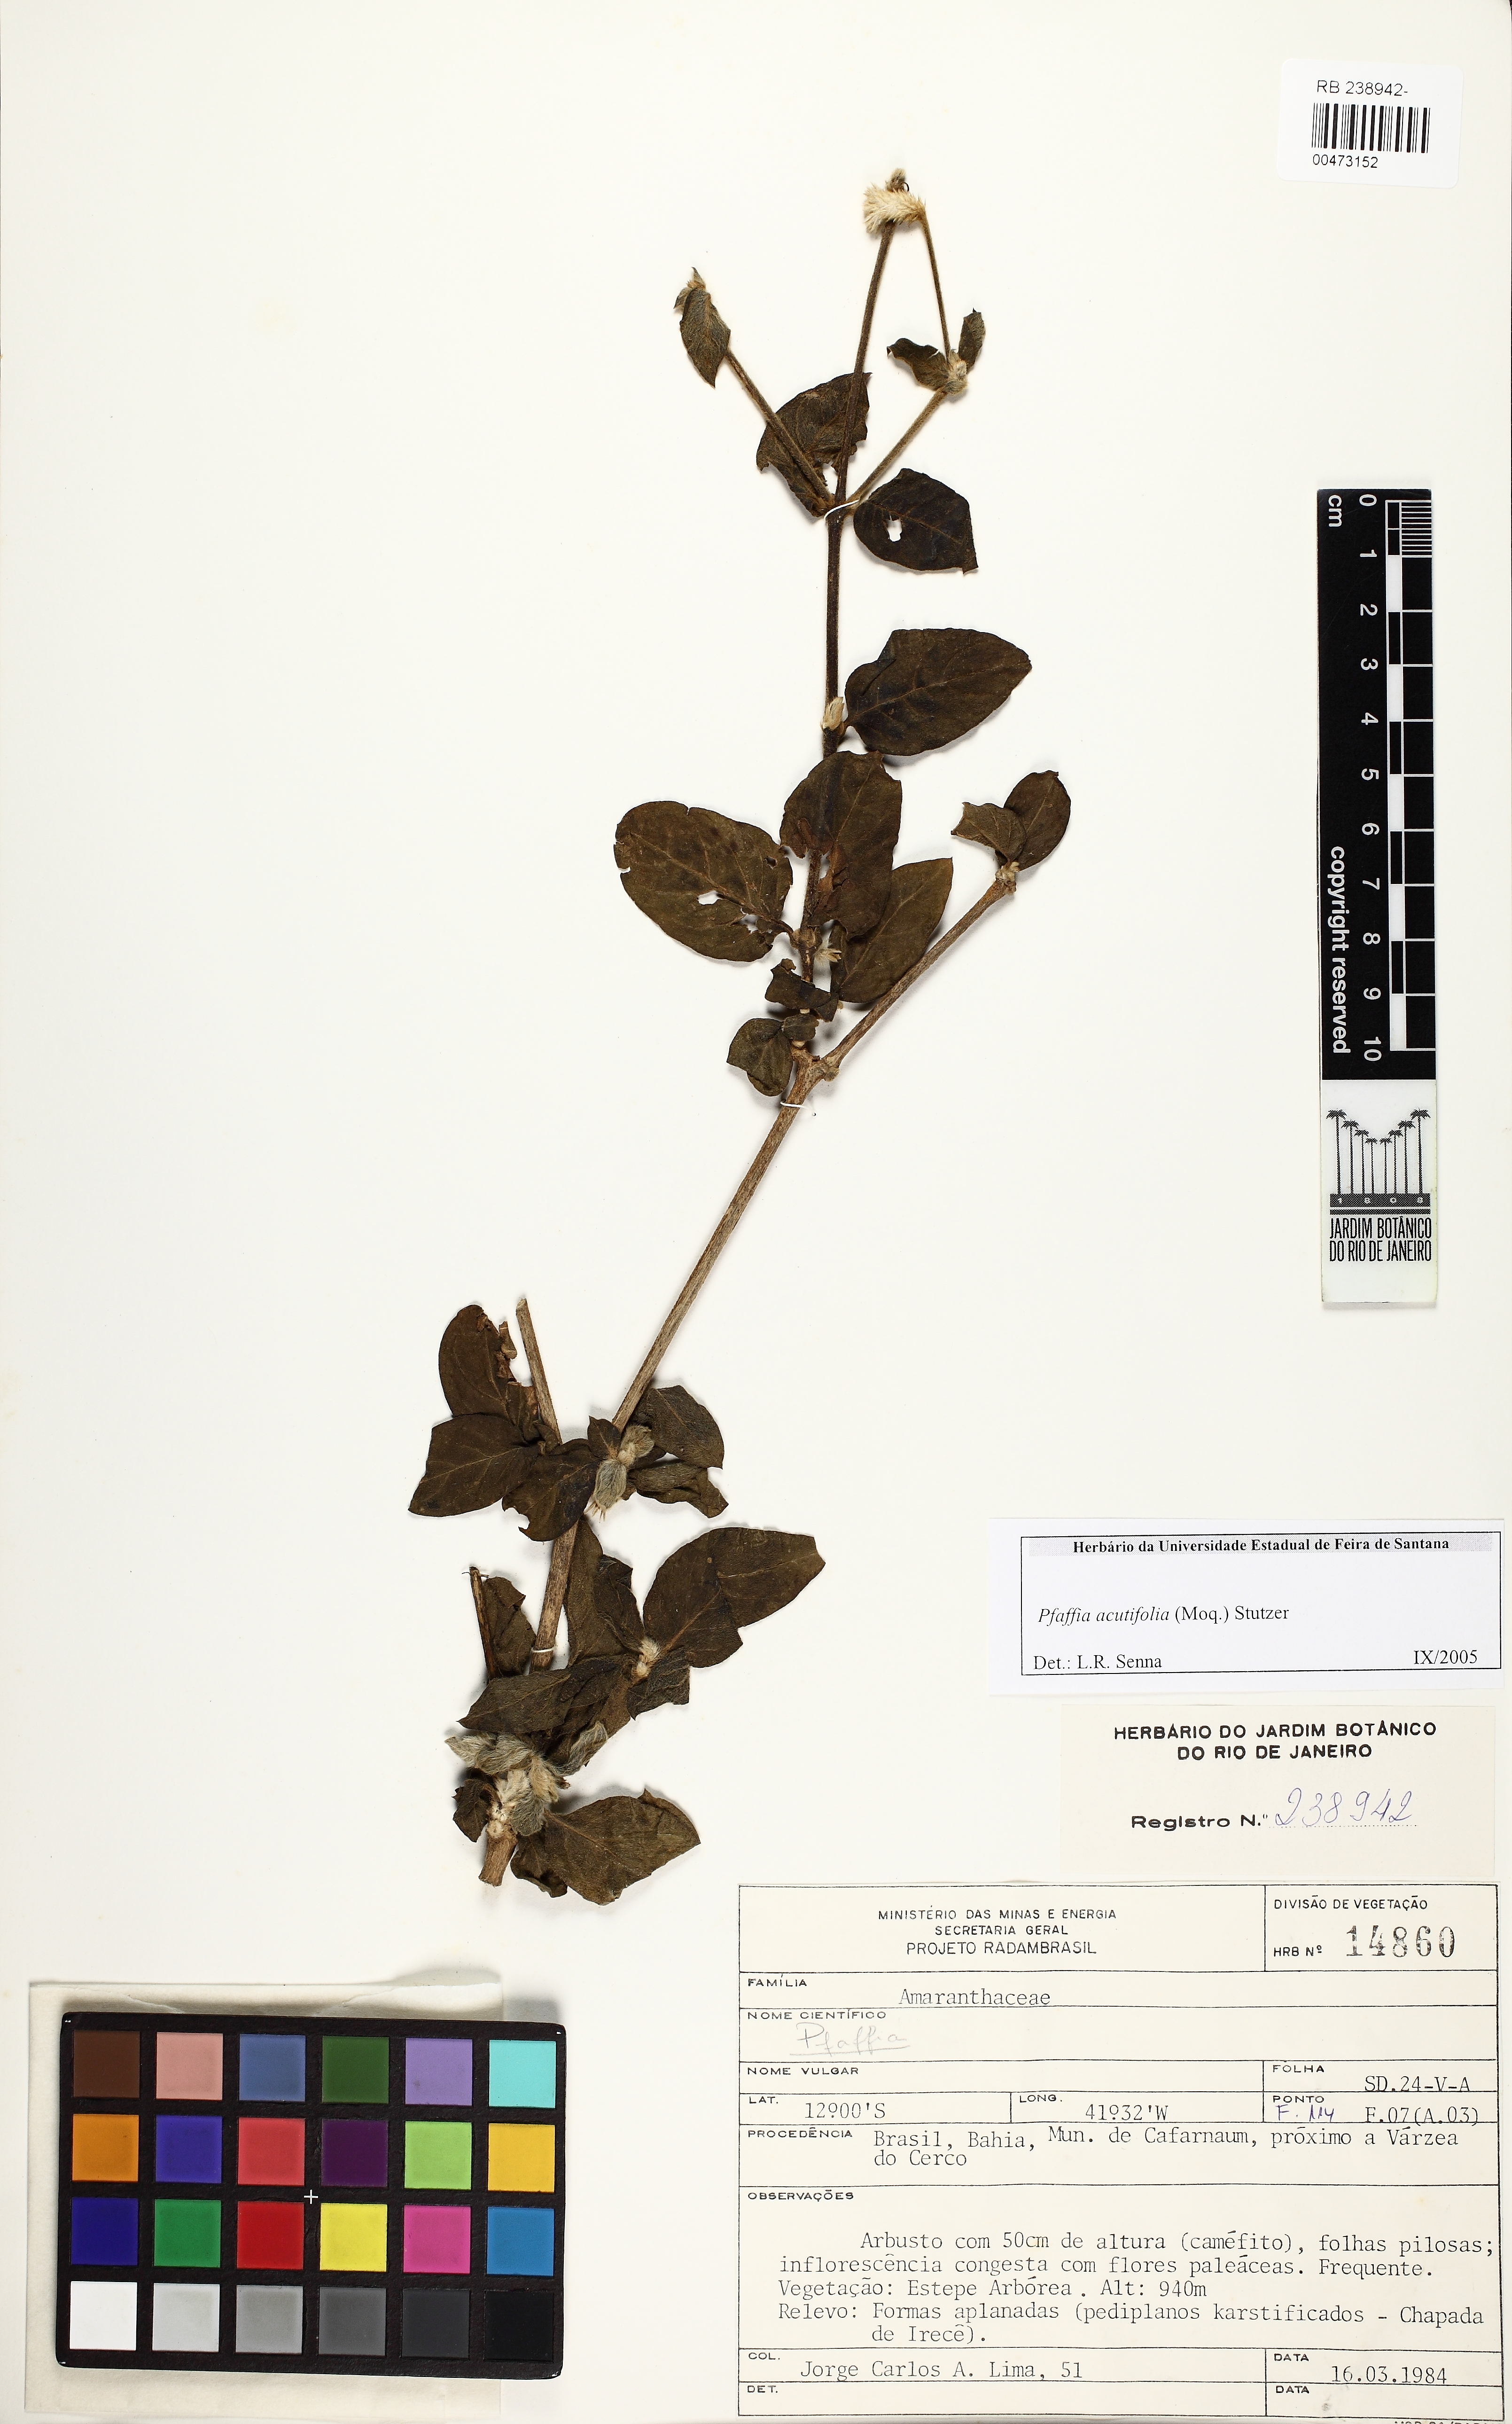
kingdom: Plantae
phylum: Tracheophyta
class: Magnoliopsida
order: Caryophyllales
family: Amaranthaceae
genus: Pfaffia
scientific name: Pfaffia acutifolia
